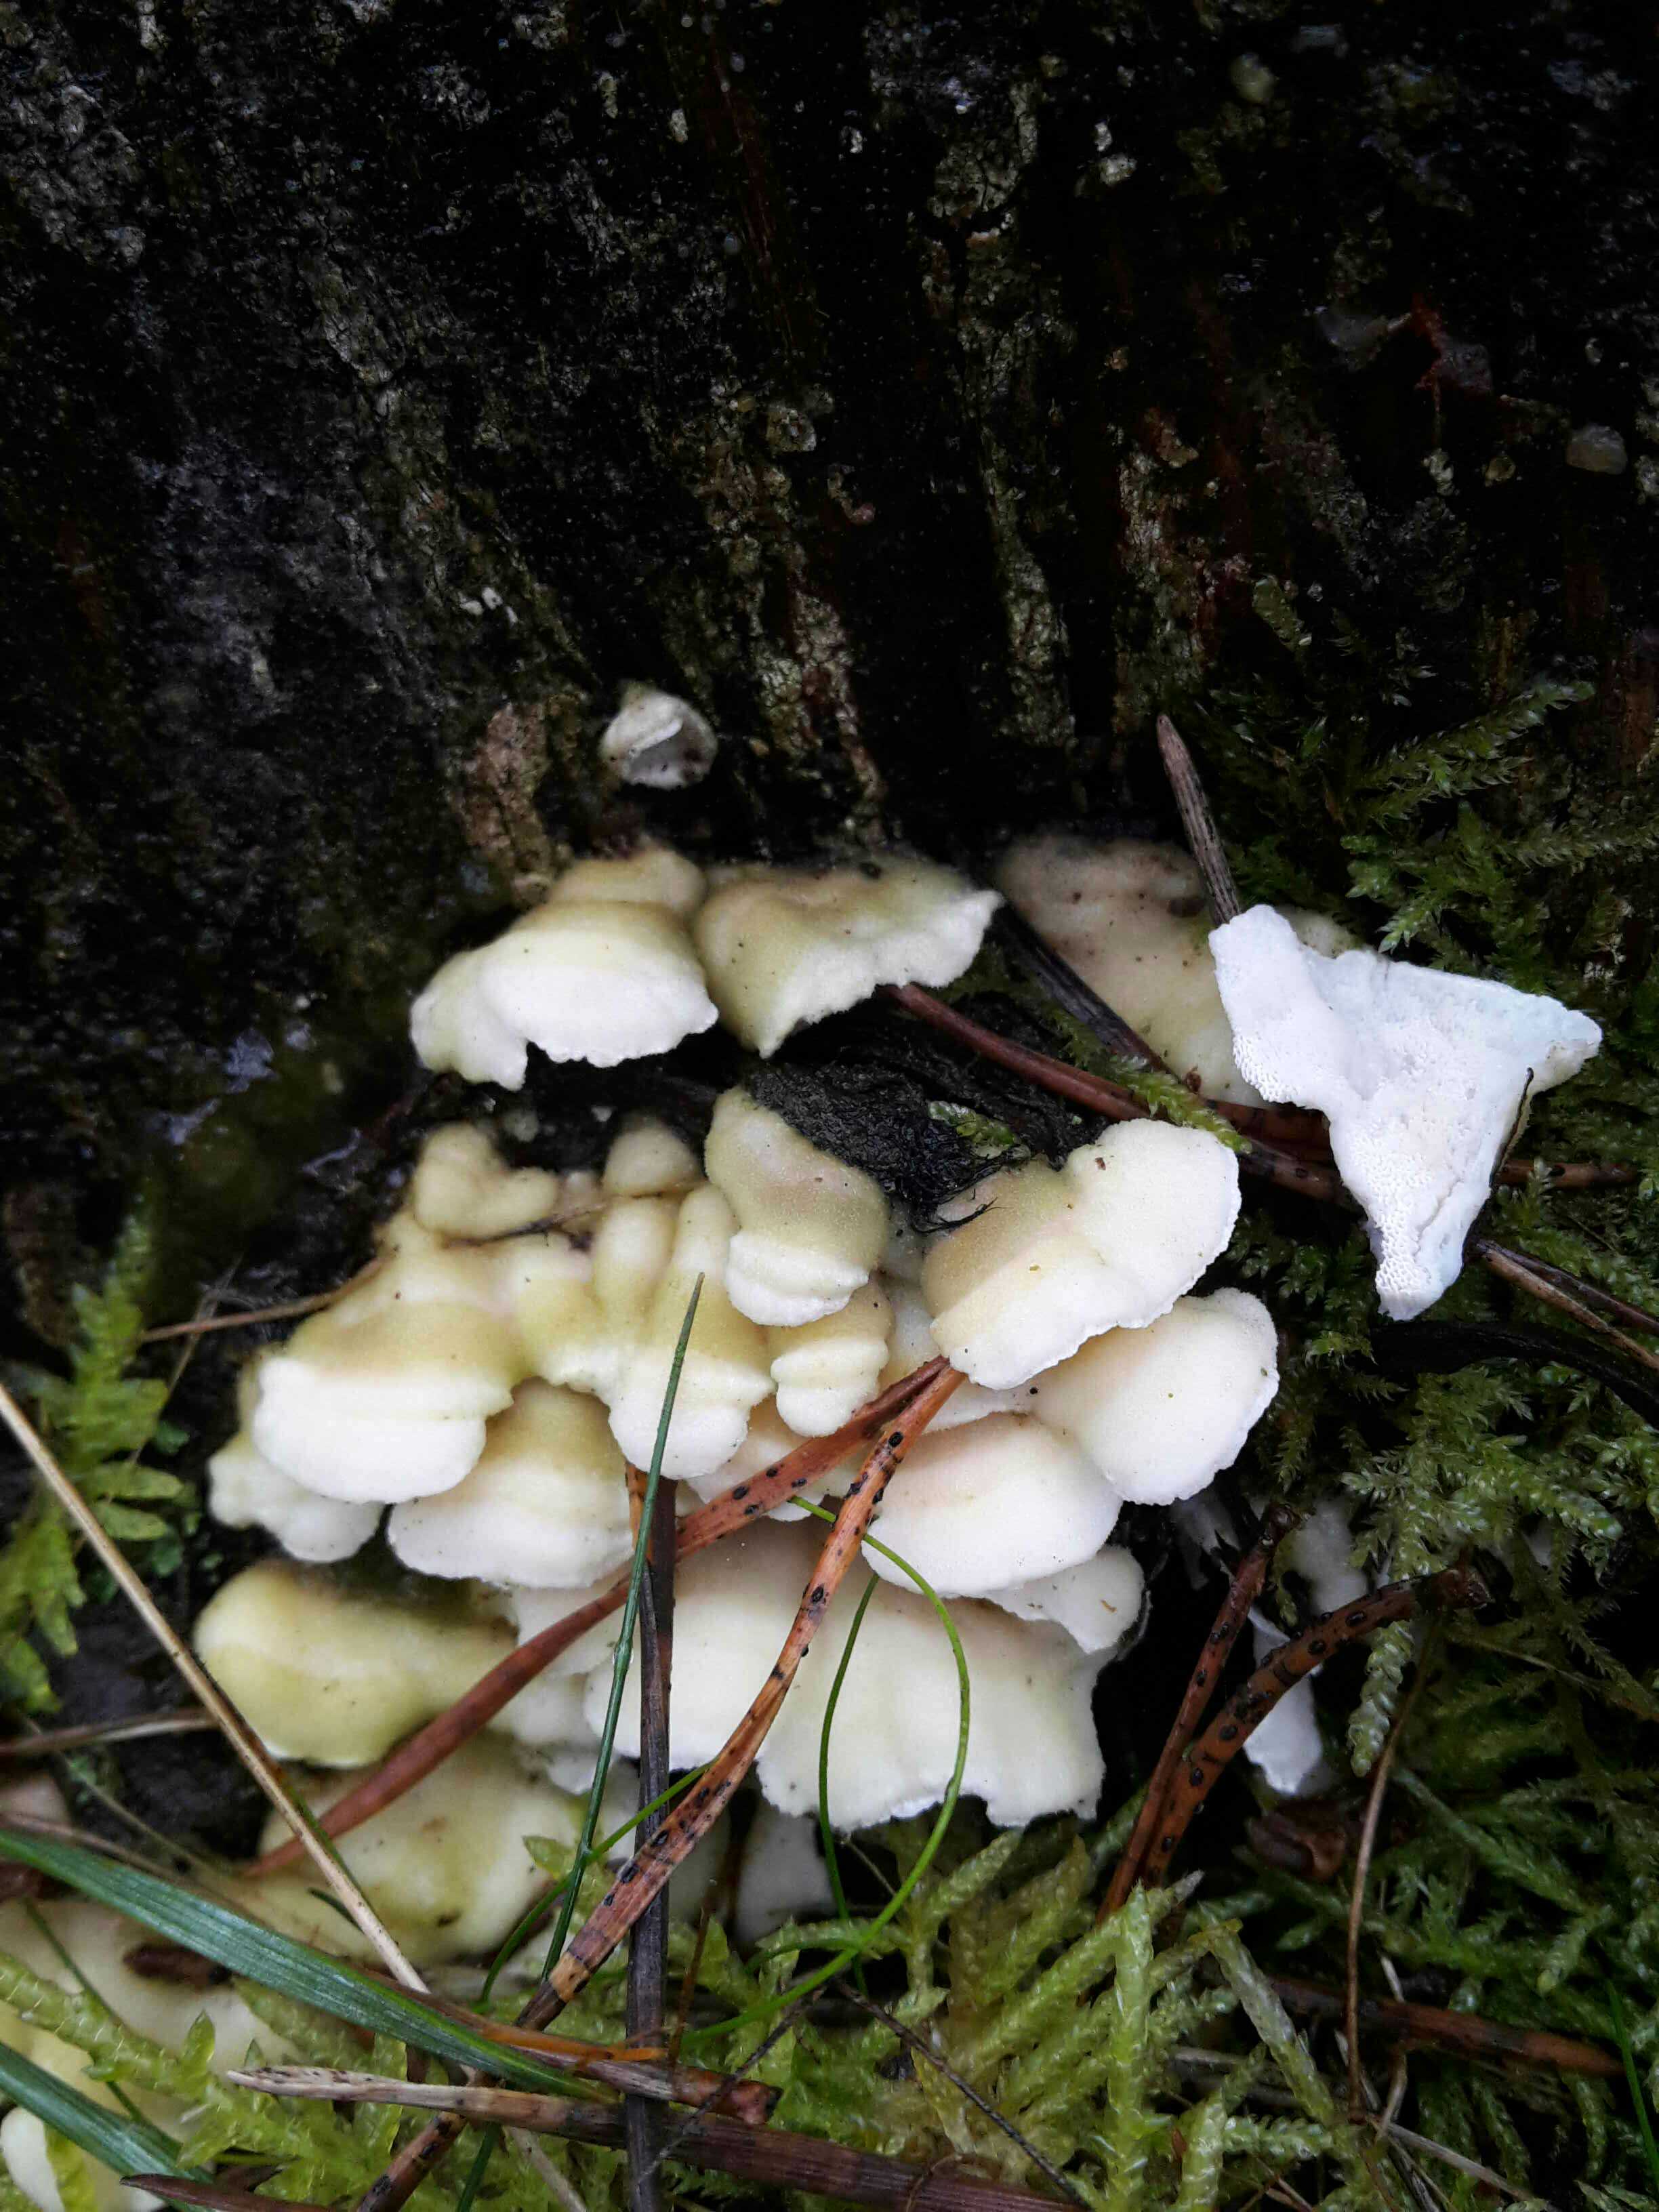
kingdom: Fungi
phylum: Basidiomycota
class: Agaricomycetes
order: Polyporales
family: Incrustoporiaceae
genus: Skeletocutis
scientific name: Skeletocutis amorpha
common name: orange krystalporesvamp
